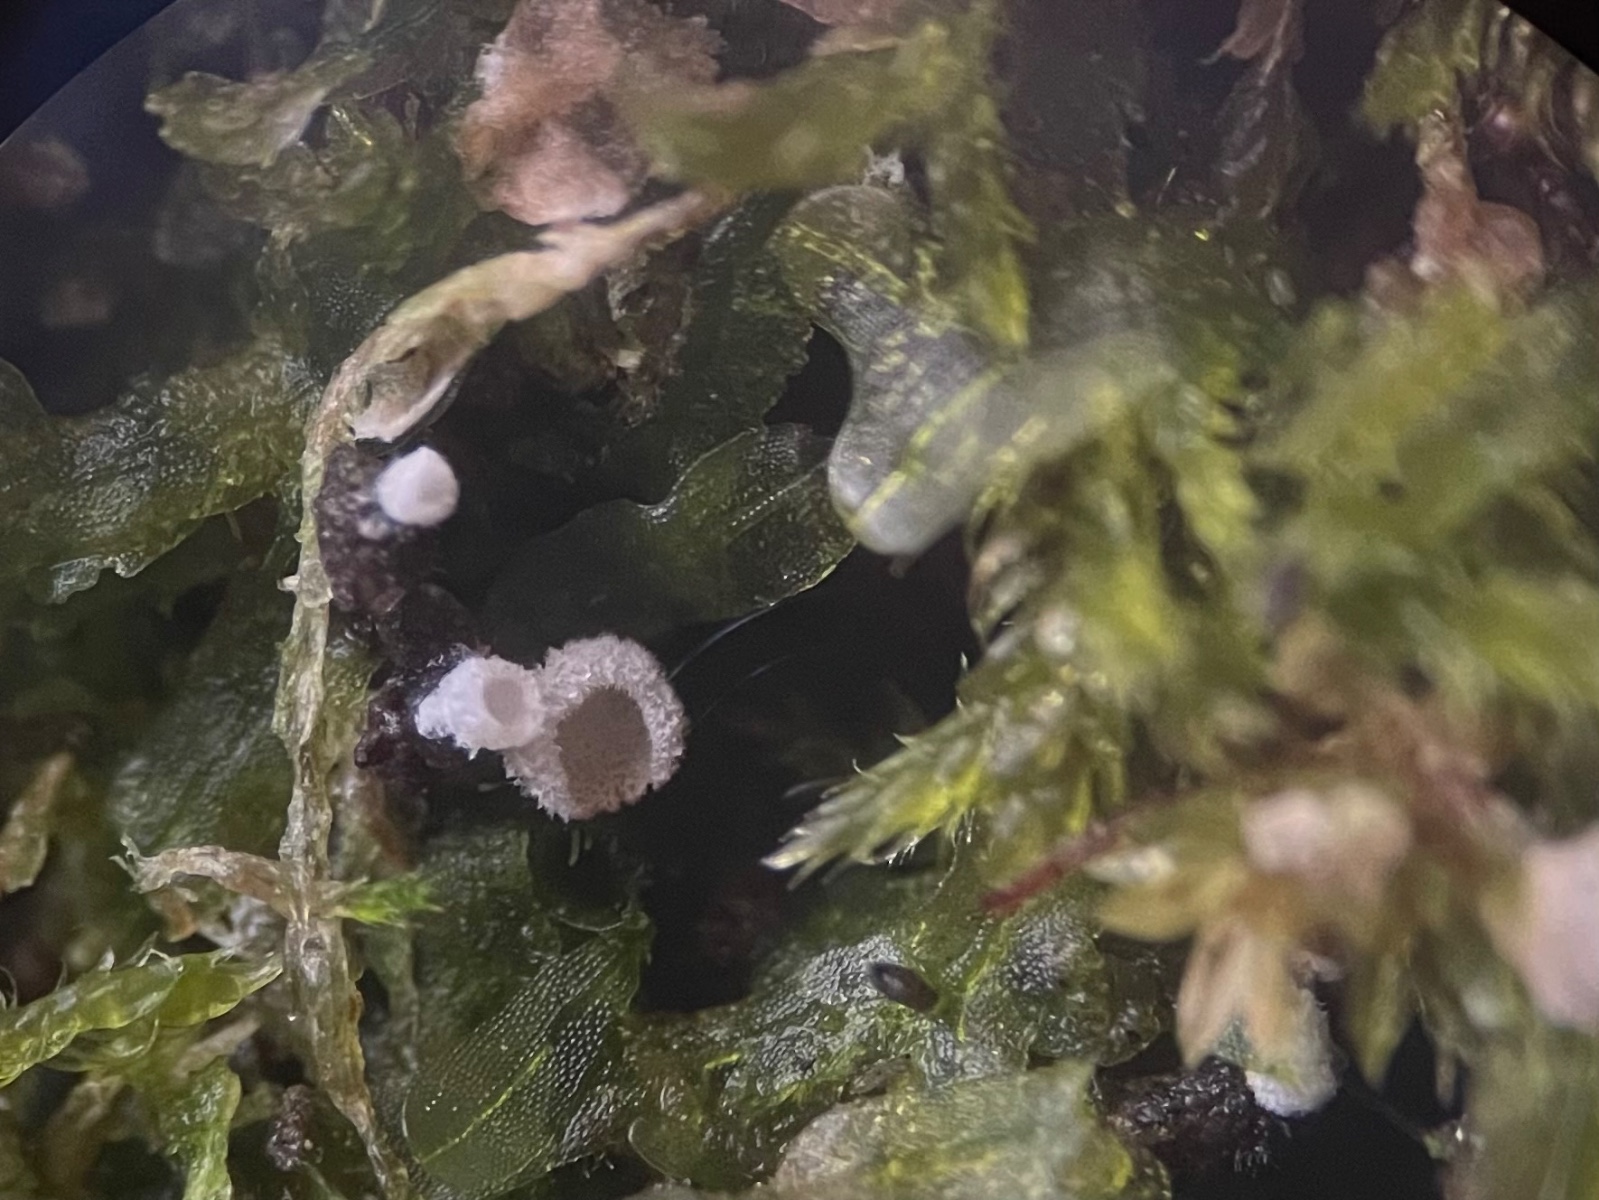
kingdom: Fungi
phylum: Basidiomycota
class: Agaricomycetes
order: Agaricales
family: Chromocyphellaceae
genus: Chromocyphella
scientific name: Chromocyphella muscicola
